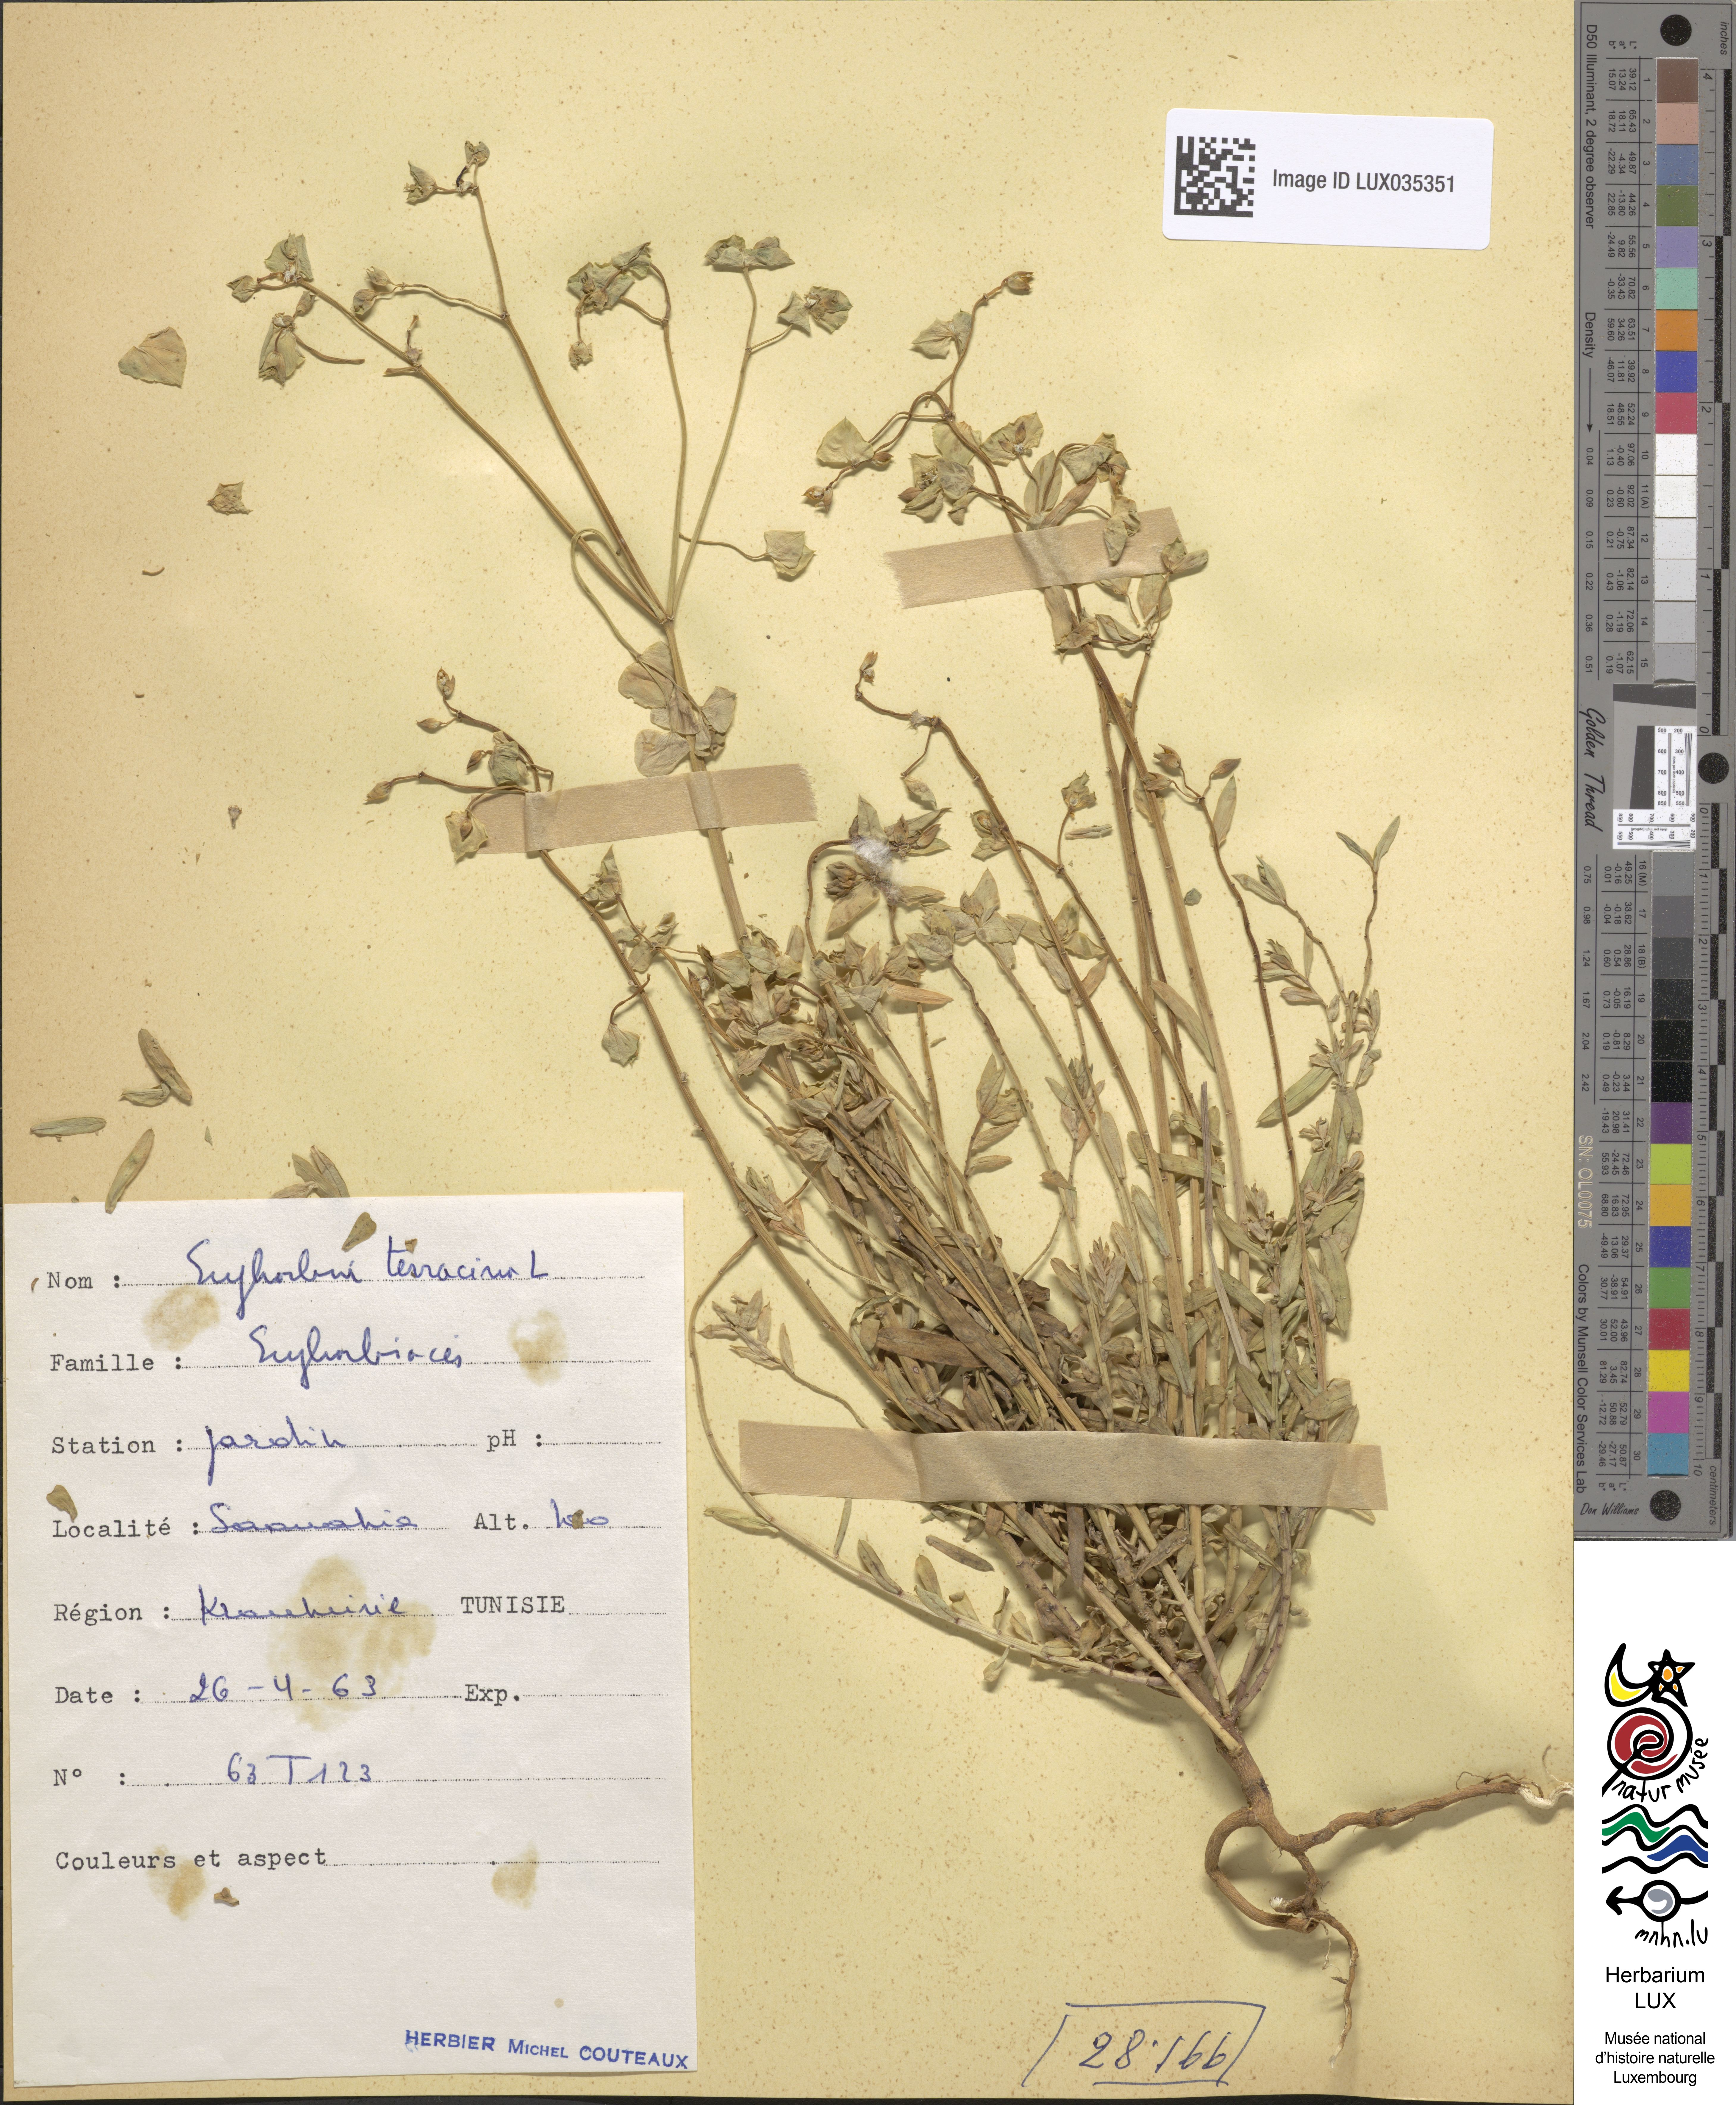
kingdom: Plantae
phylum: Tracheophyta
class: Magnoliopsida
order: Malpighiales
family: Euphorbiaceae
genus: Euphorbia
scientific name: Euphorbia terracina
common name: Geraldton carnation weed
